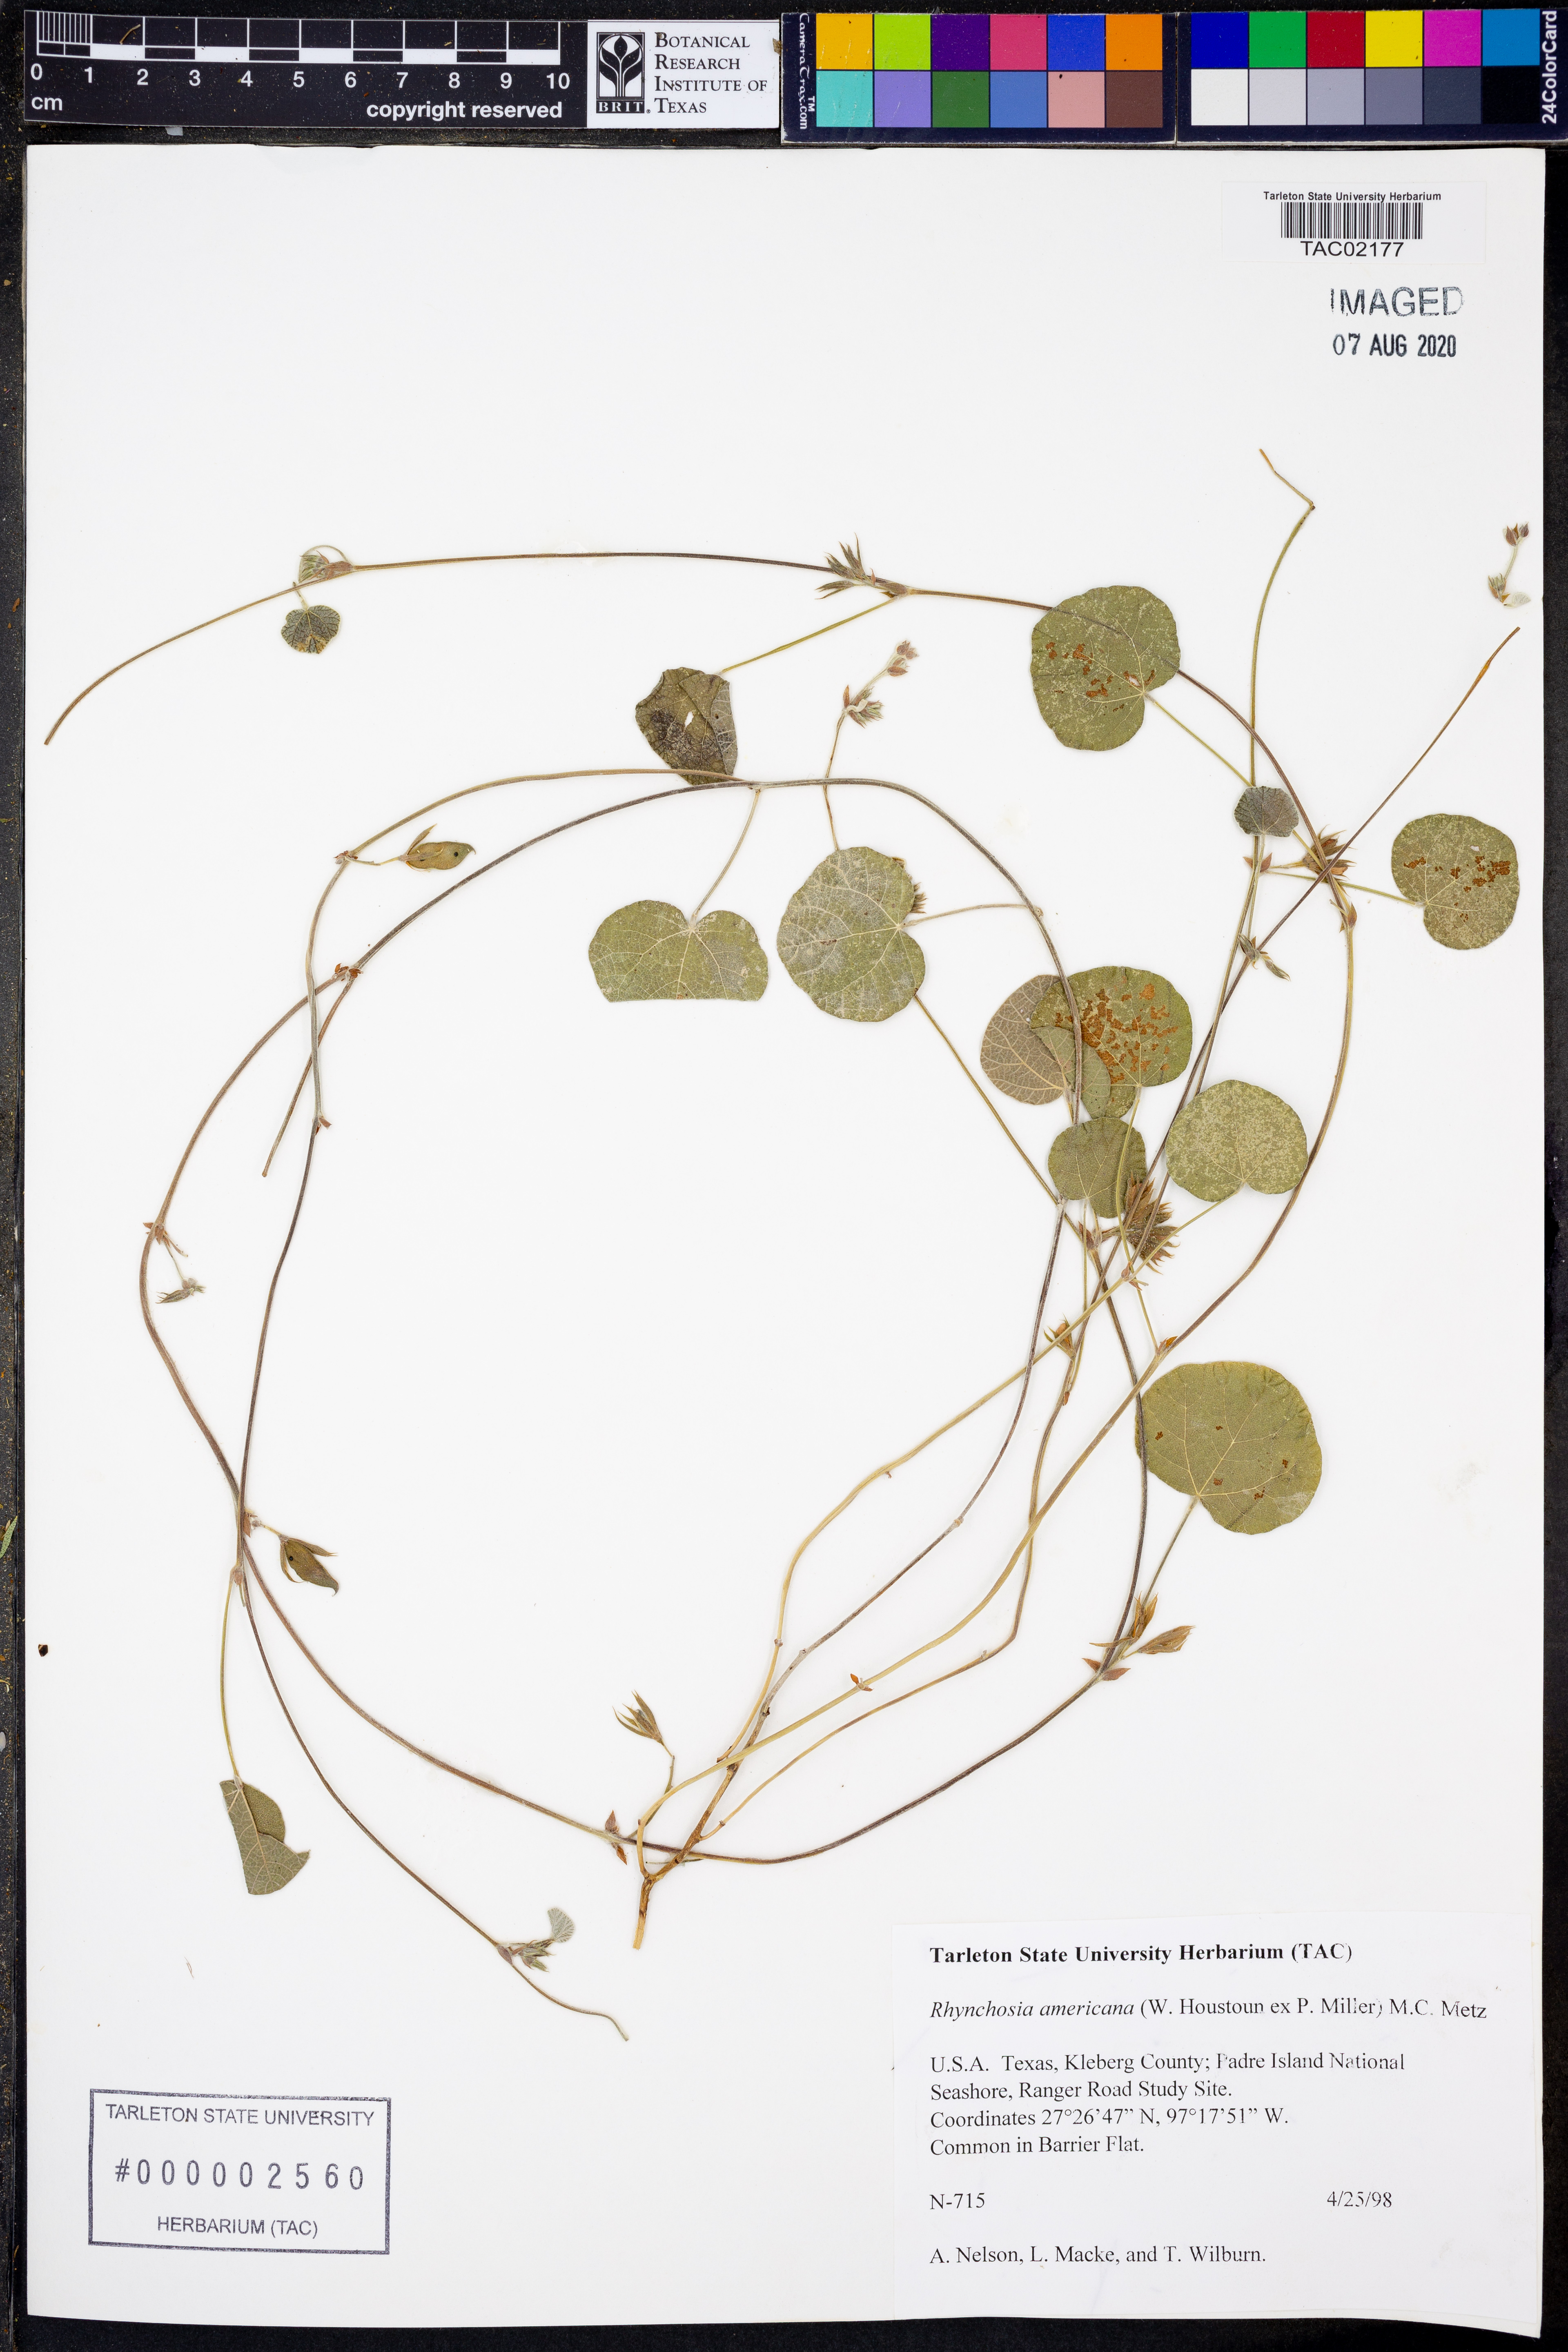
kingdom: Plantae
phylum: Tracheophyta
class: Magnoliopsida
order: Fabales
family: Fabaceae
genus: Rhynchosia
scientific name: Rhynchosia americana
